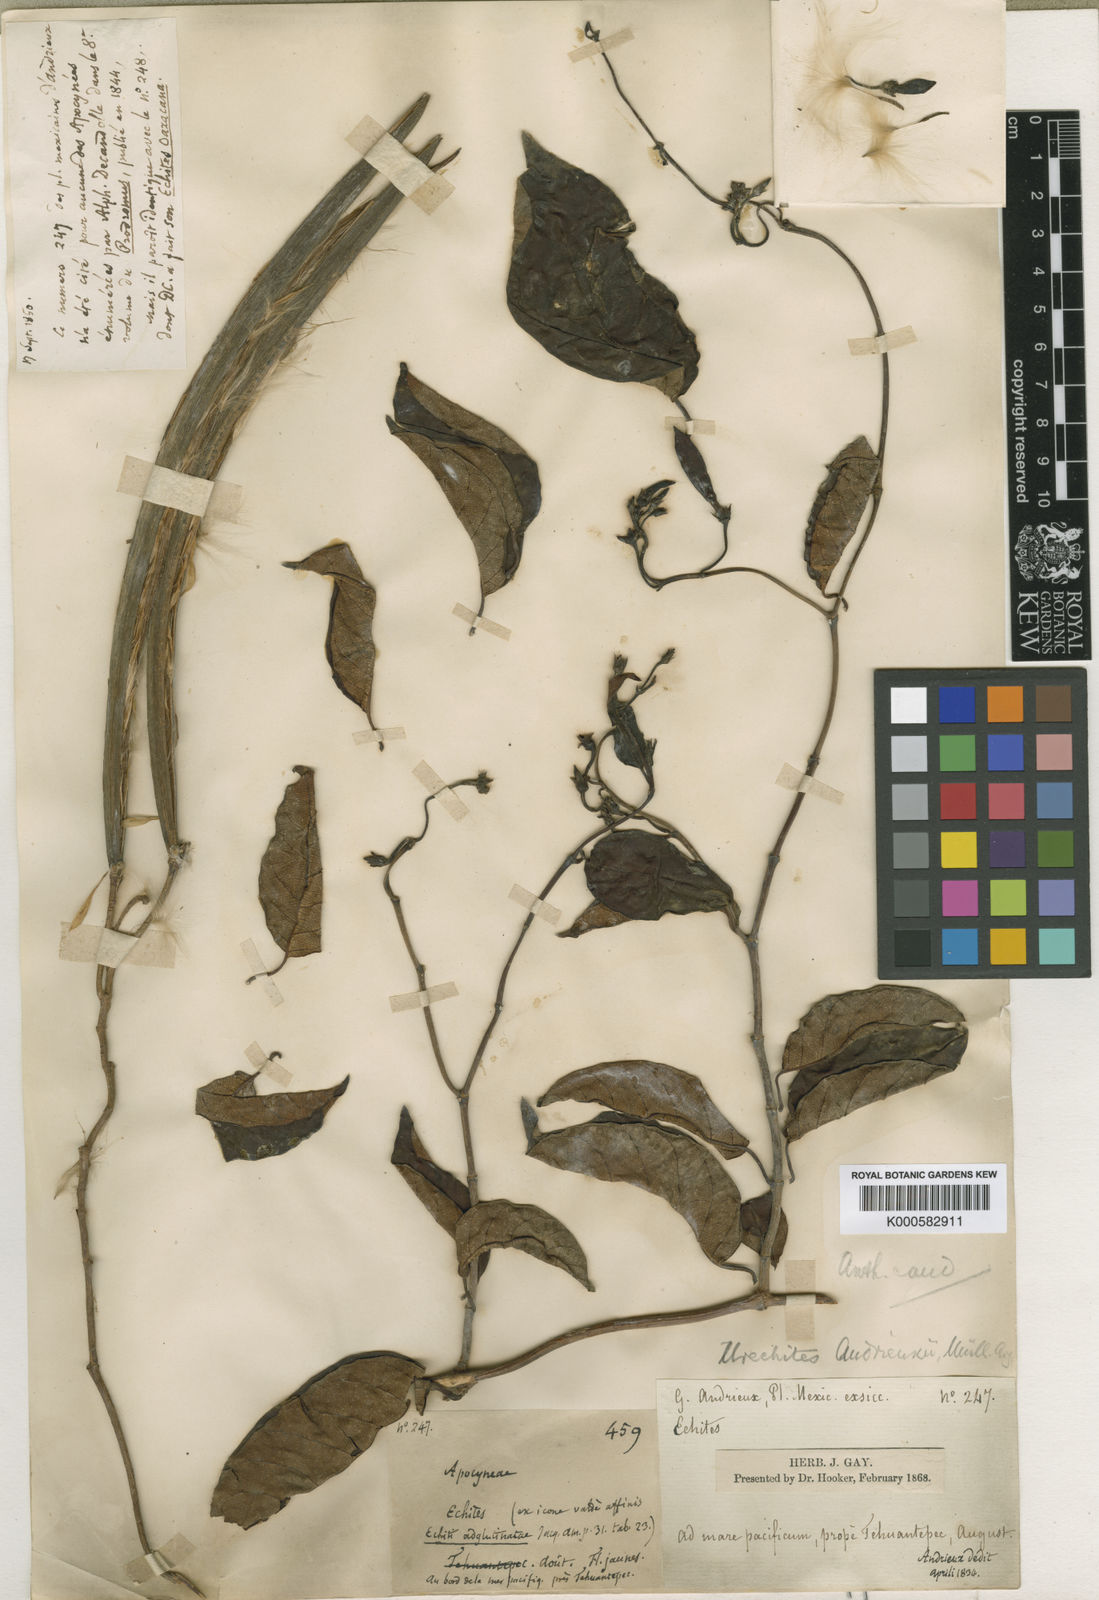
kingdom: Plantae
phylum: Tracheophyta
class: Magnoliopsida
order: Gentianales
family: Apocynaceae
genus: Pentalinon
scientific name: Pentalinon
